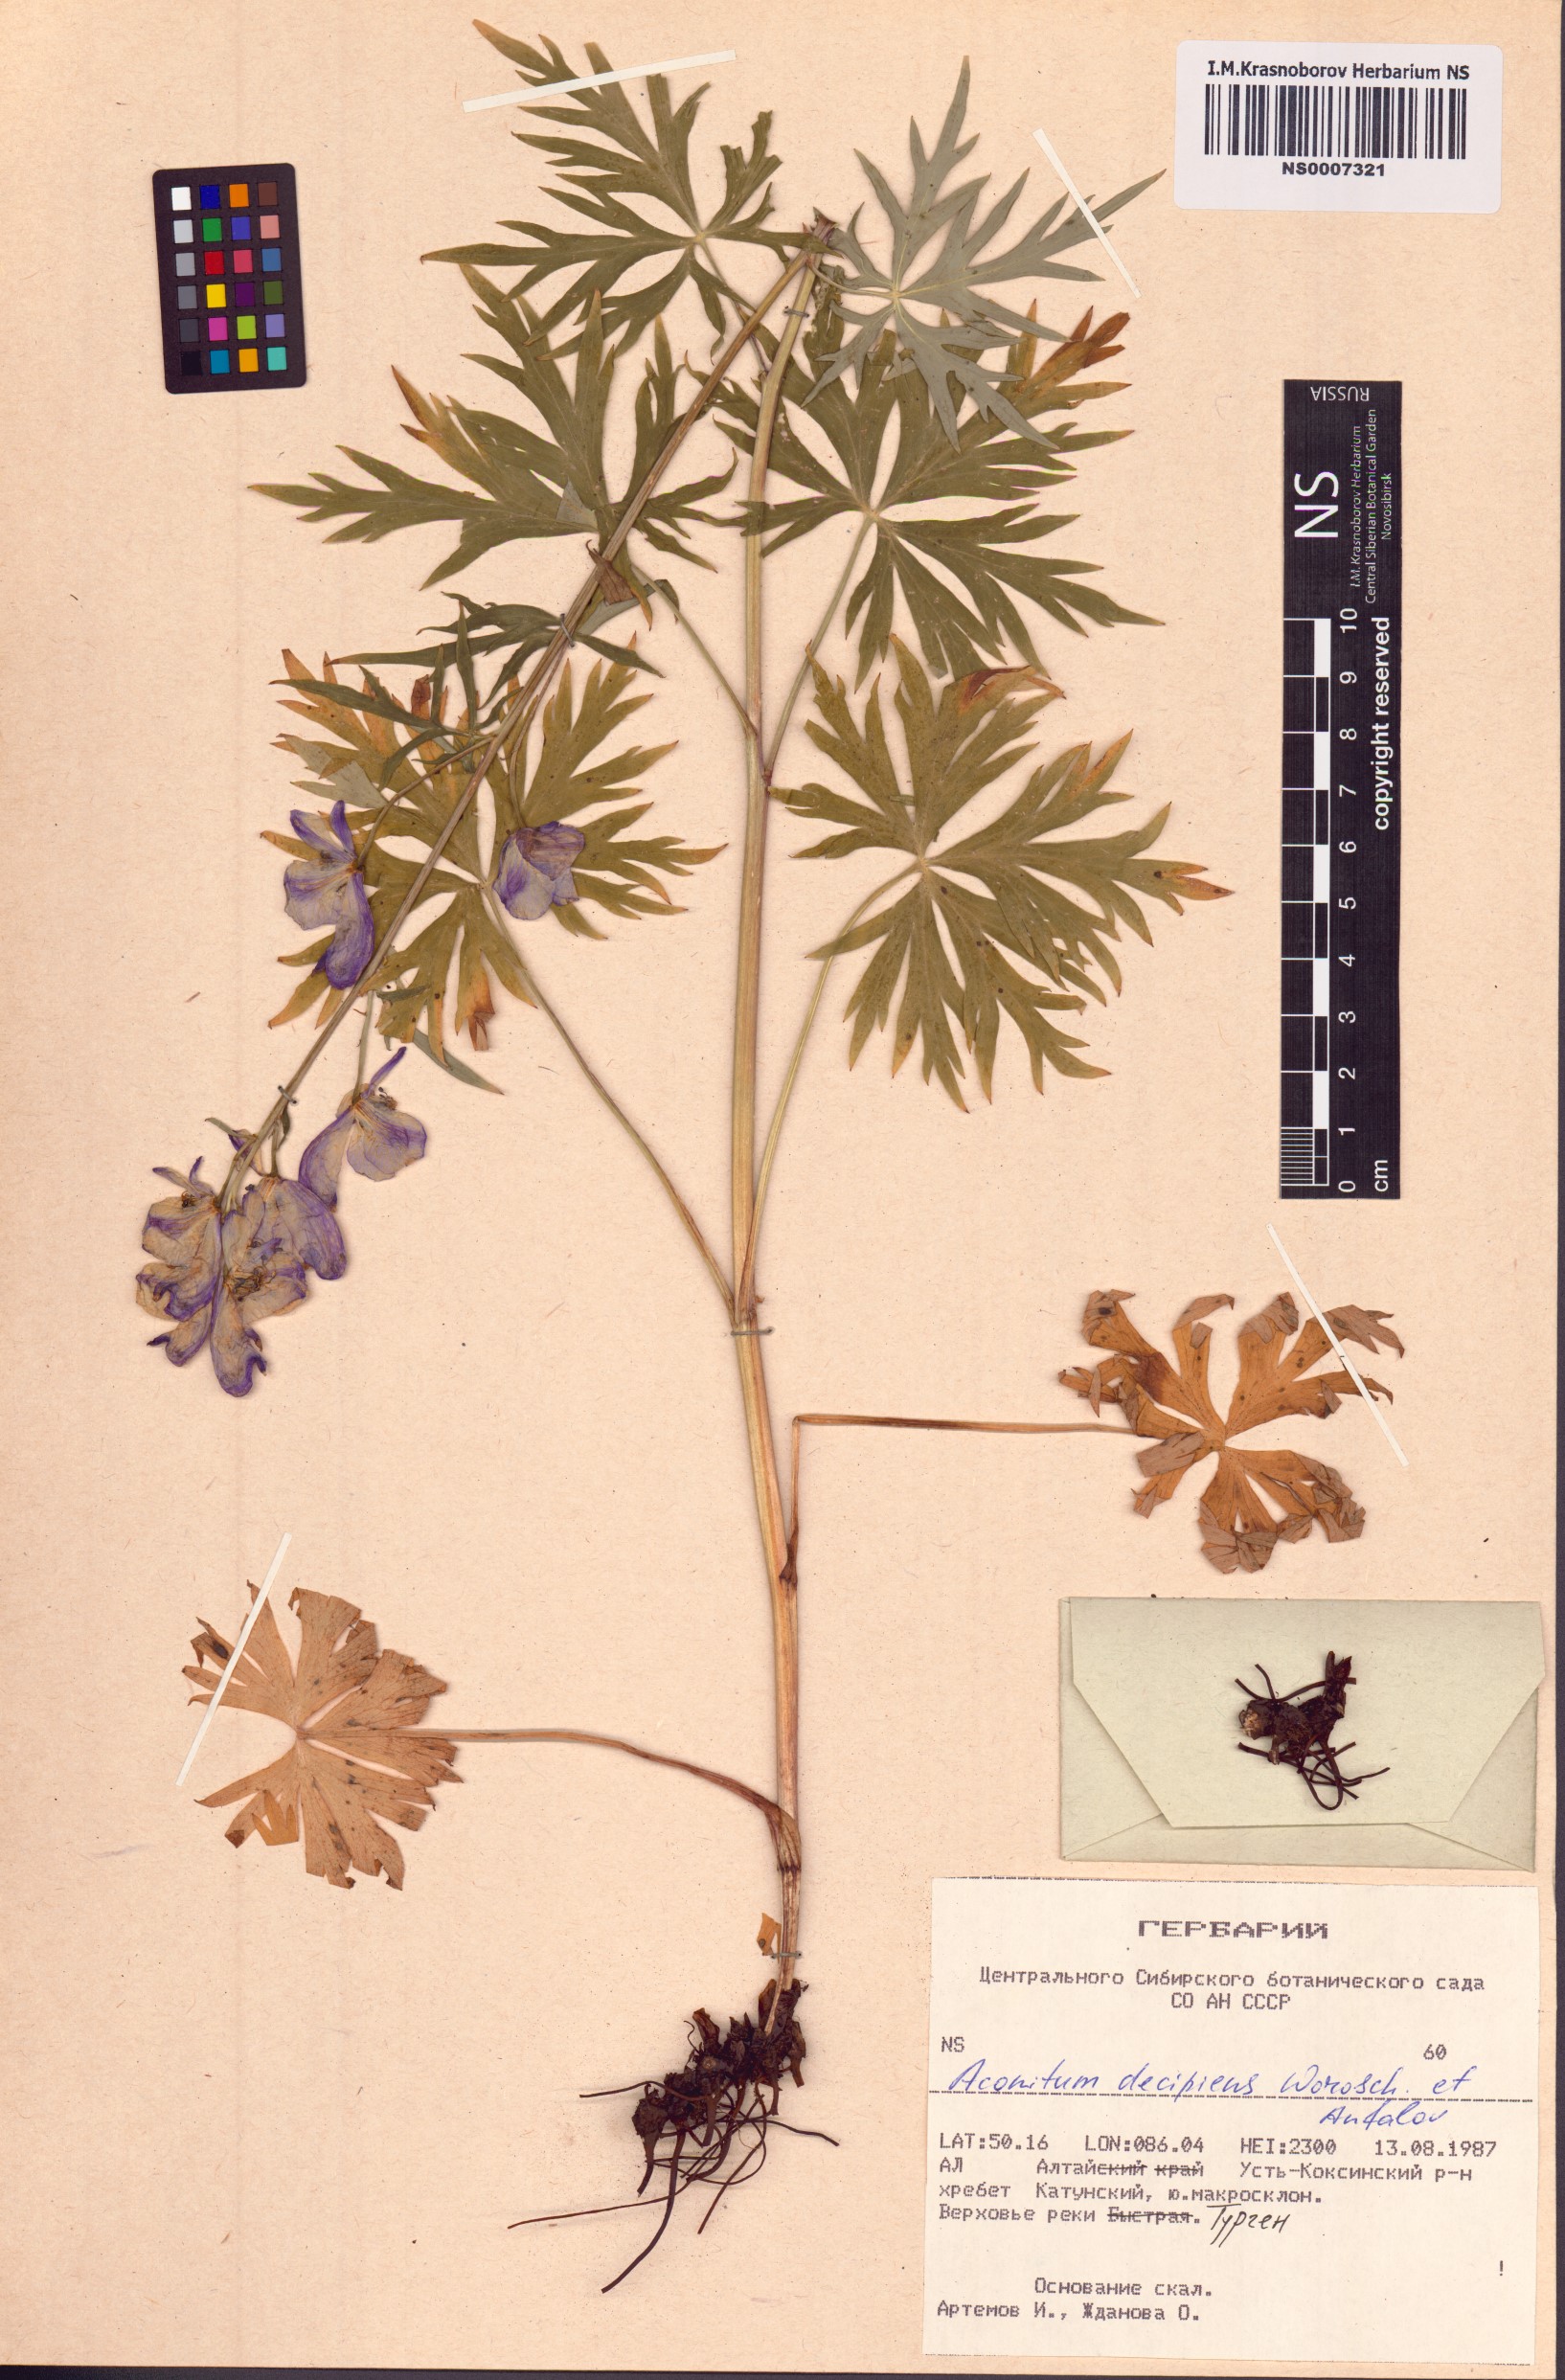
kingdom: Plantae
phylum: Tracheophyta
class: Magnoliopsida
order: Ranunculales
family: Ranunculaceae
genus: Aconitum
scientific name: Aconitum decipiens
